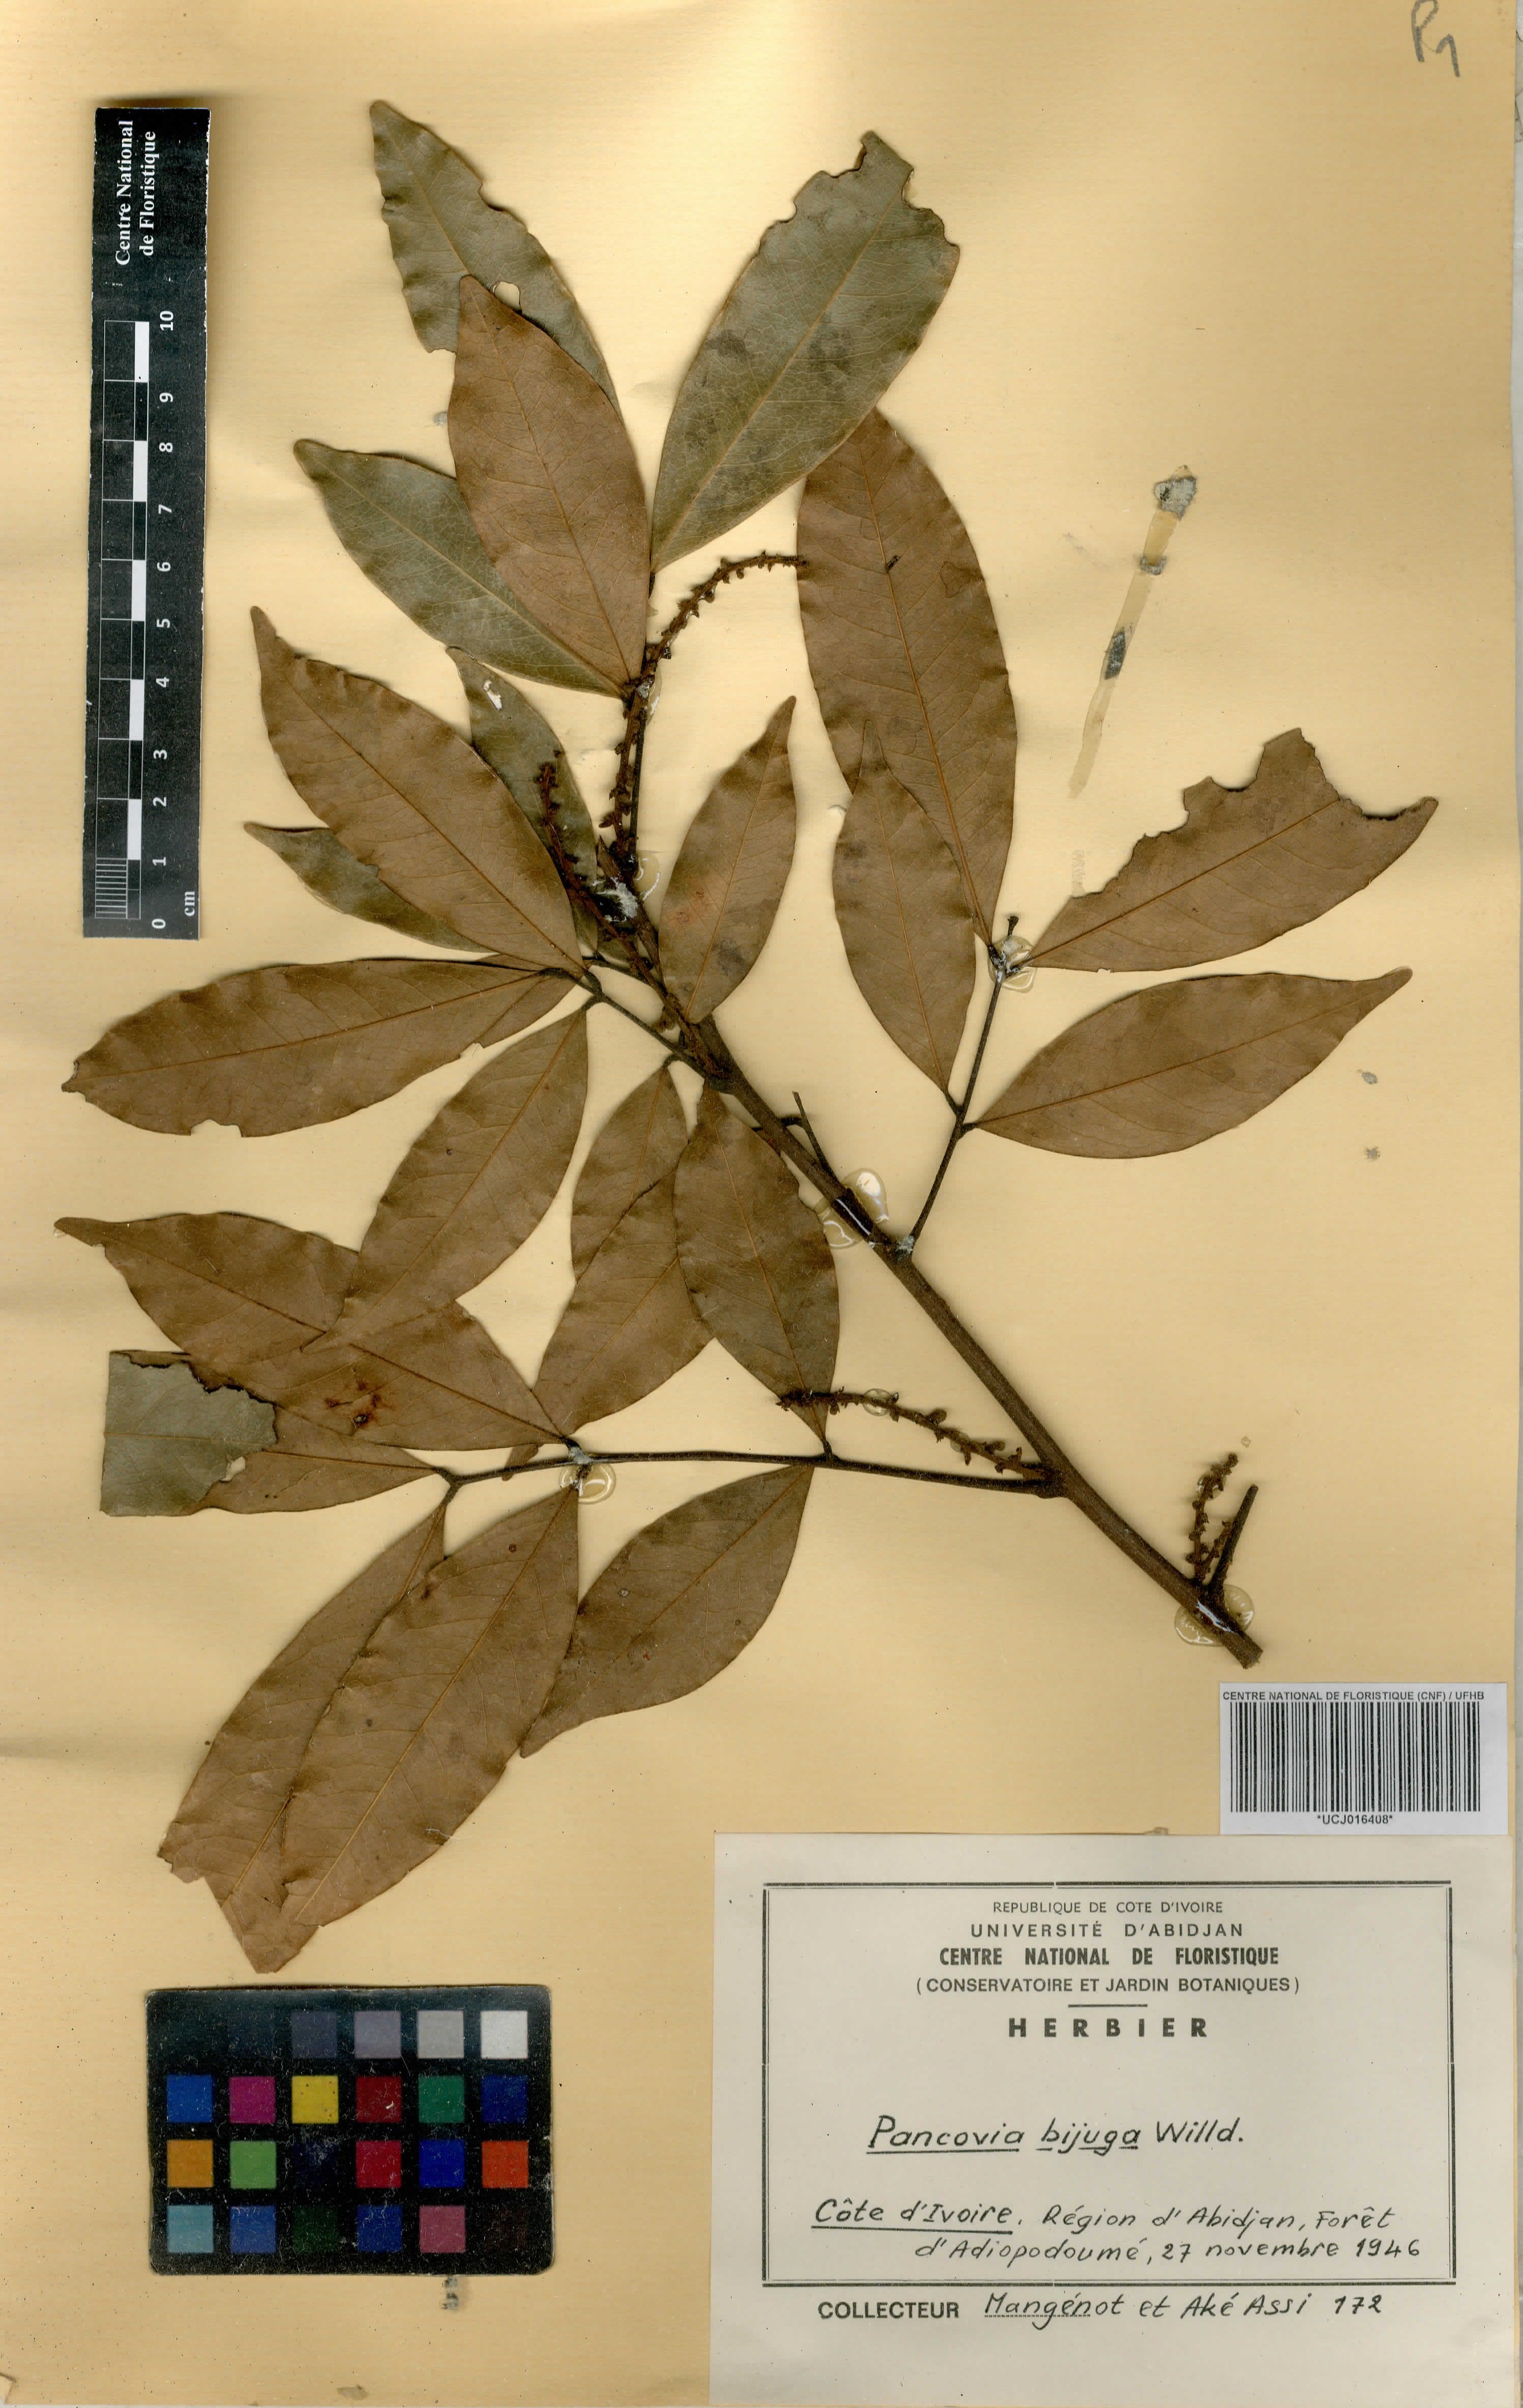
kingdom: Plantae
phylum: Tracheophyta
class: Magnoliopsida
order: Sapindales
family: Sapindaceae
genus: Pancovia
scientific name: Pancovia bijuga
